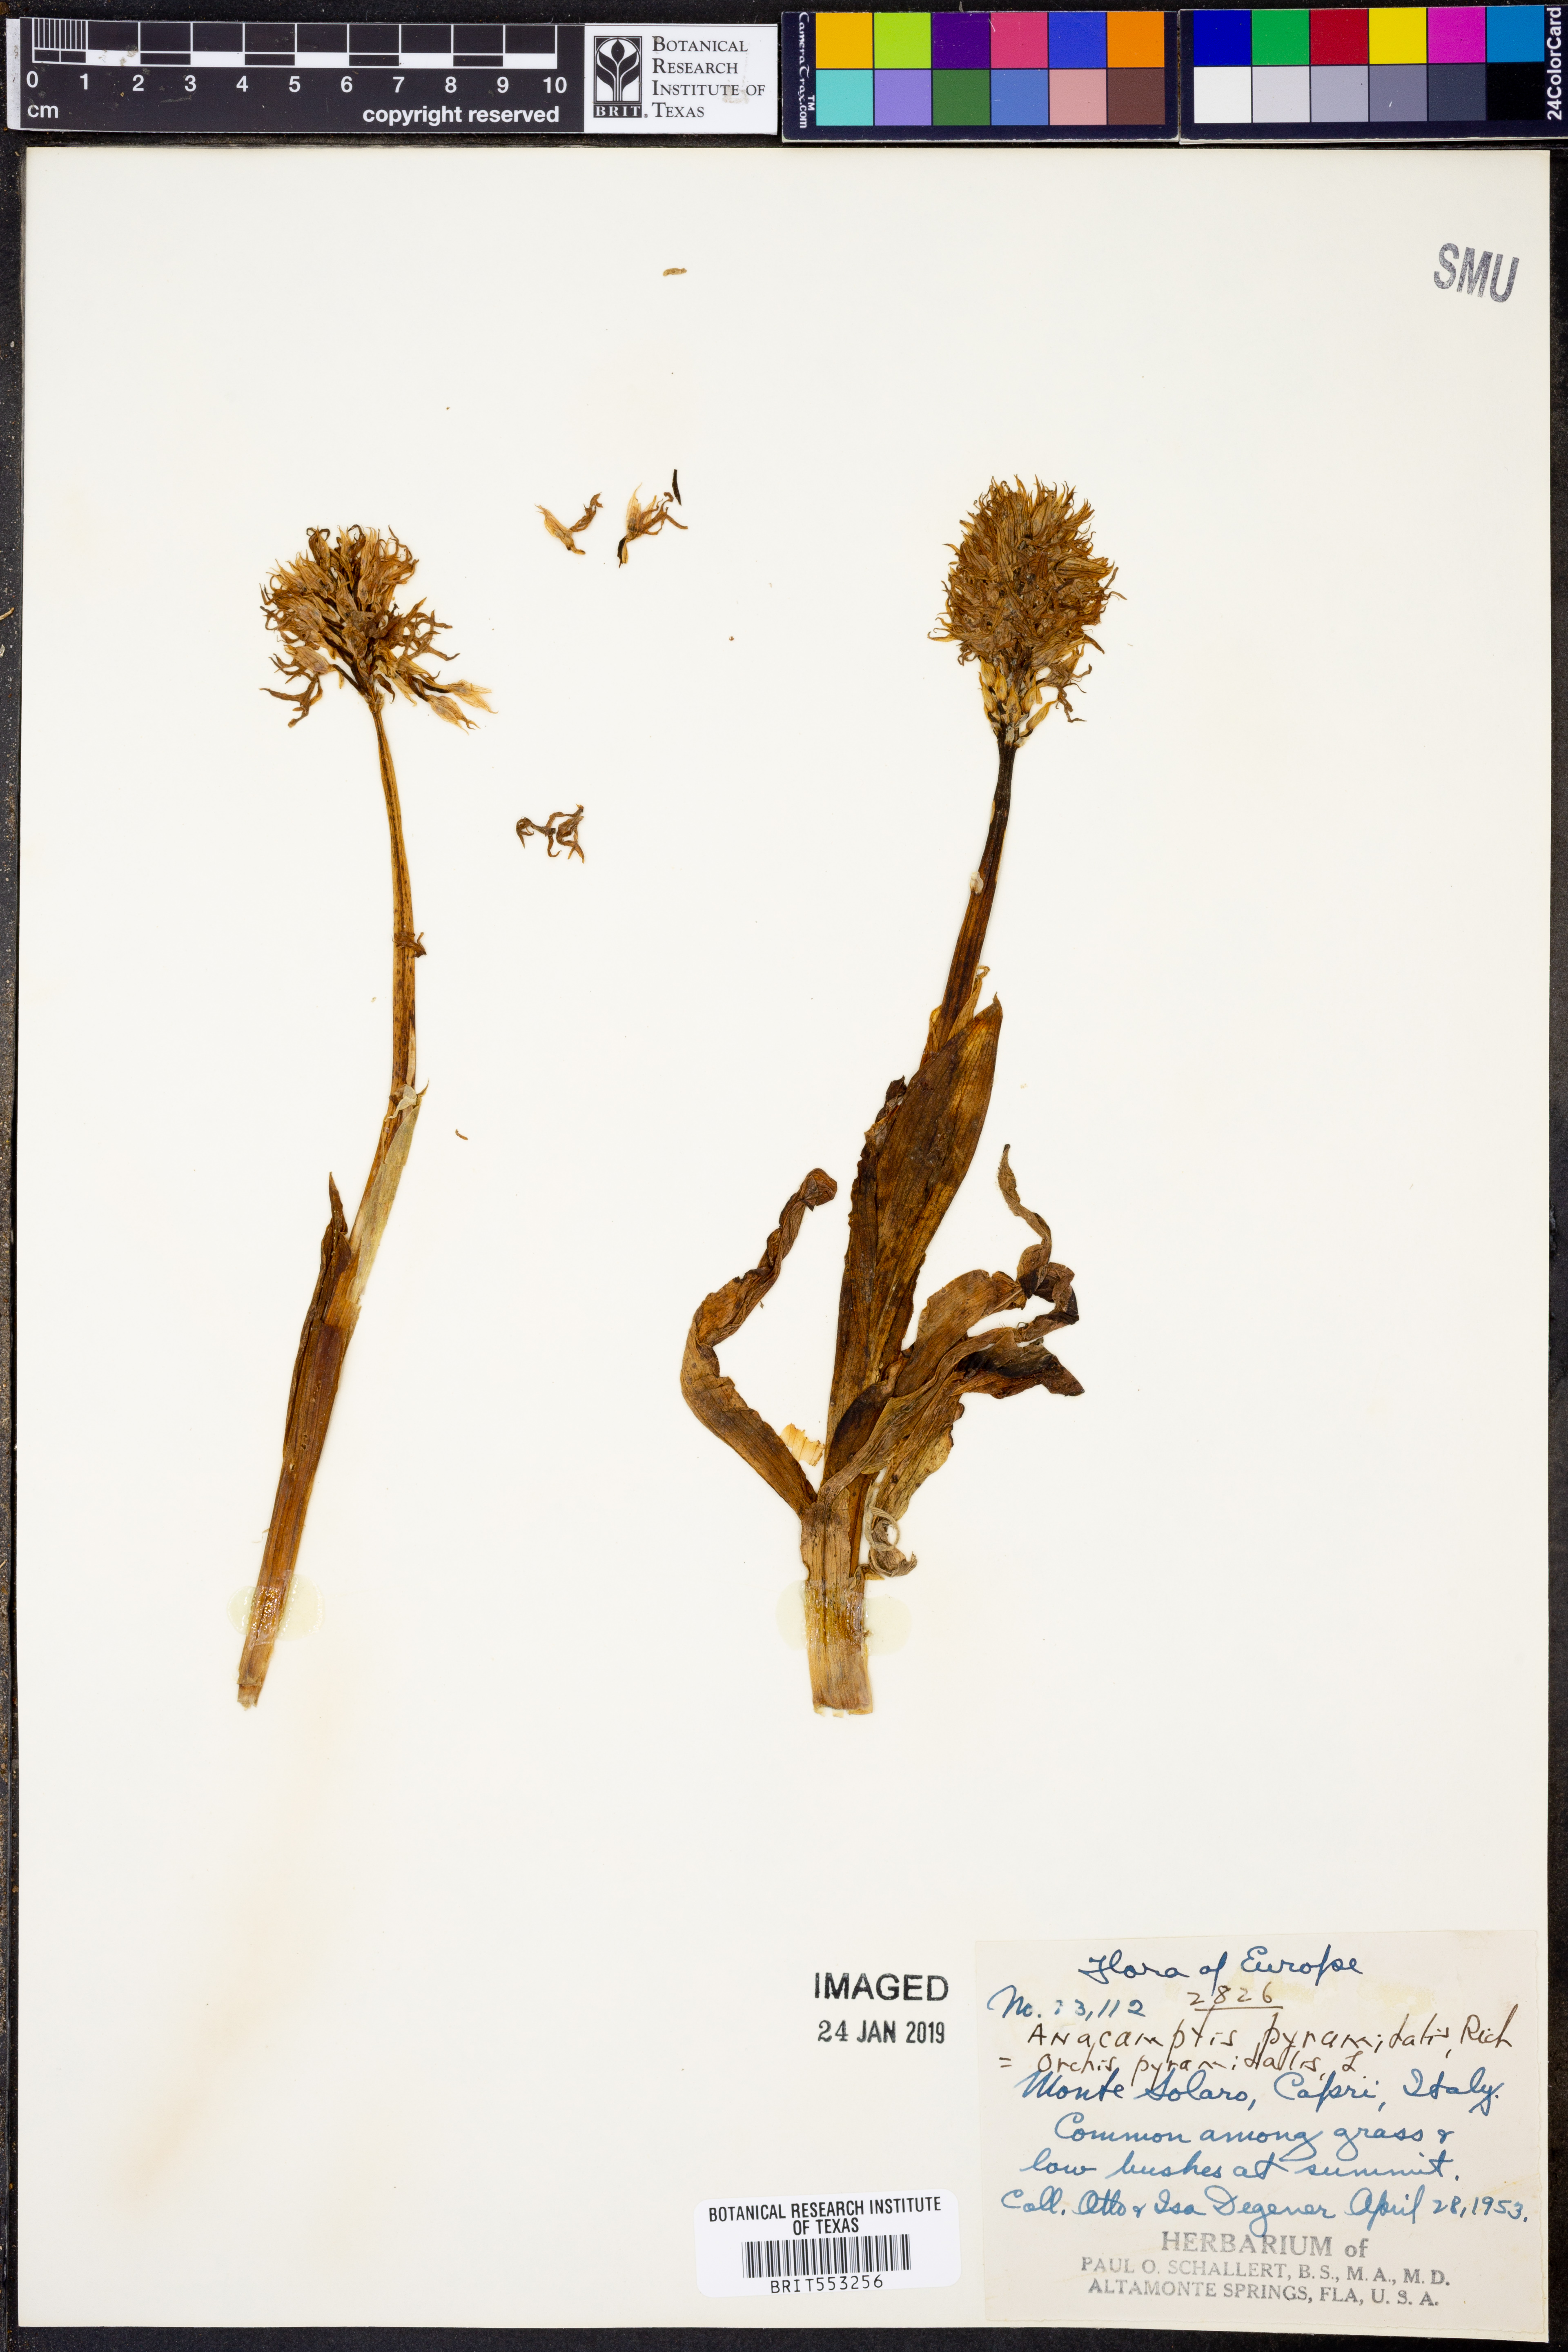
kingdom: Plantae
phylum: Tracheophyta
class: Liliopsida
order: Asparagales
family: Orchidaceae
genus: Orchis
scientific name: Orchis pyramidalis
